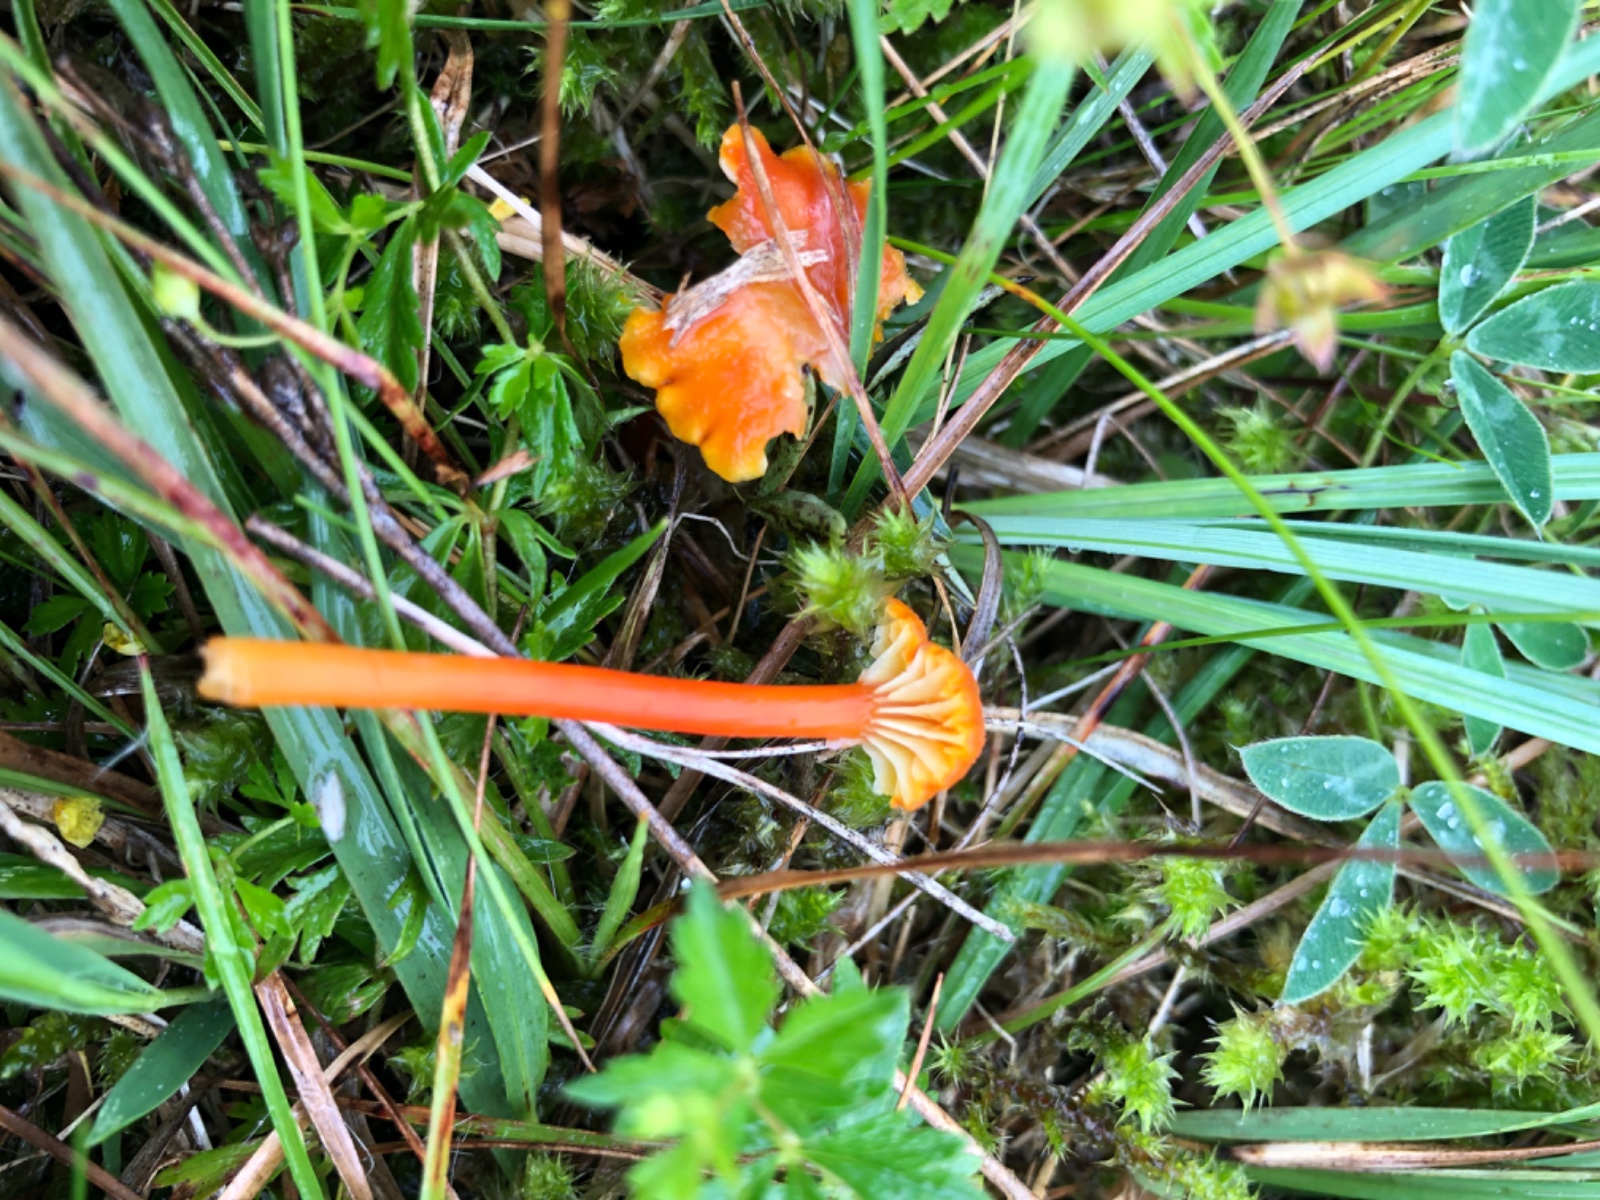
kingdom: Fungi
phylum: Basidiomycota
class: Agaricomycetes
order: Agaricales
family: Hygrophoraceae
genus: Hygrocybe
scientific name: Hygrocybe cantharellus
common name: kantarel-vokshat
